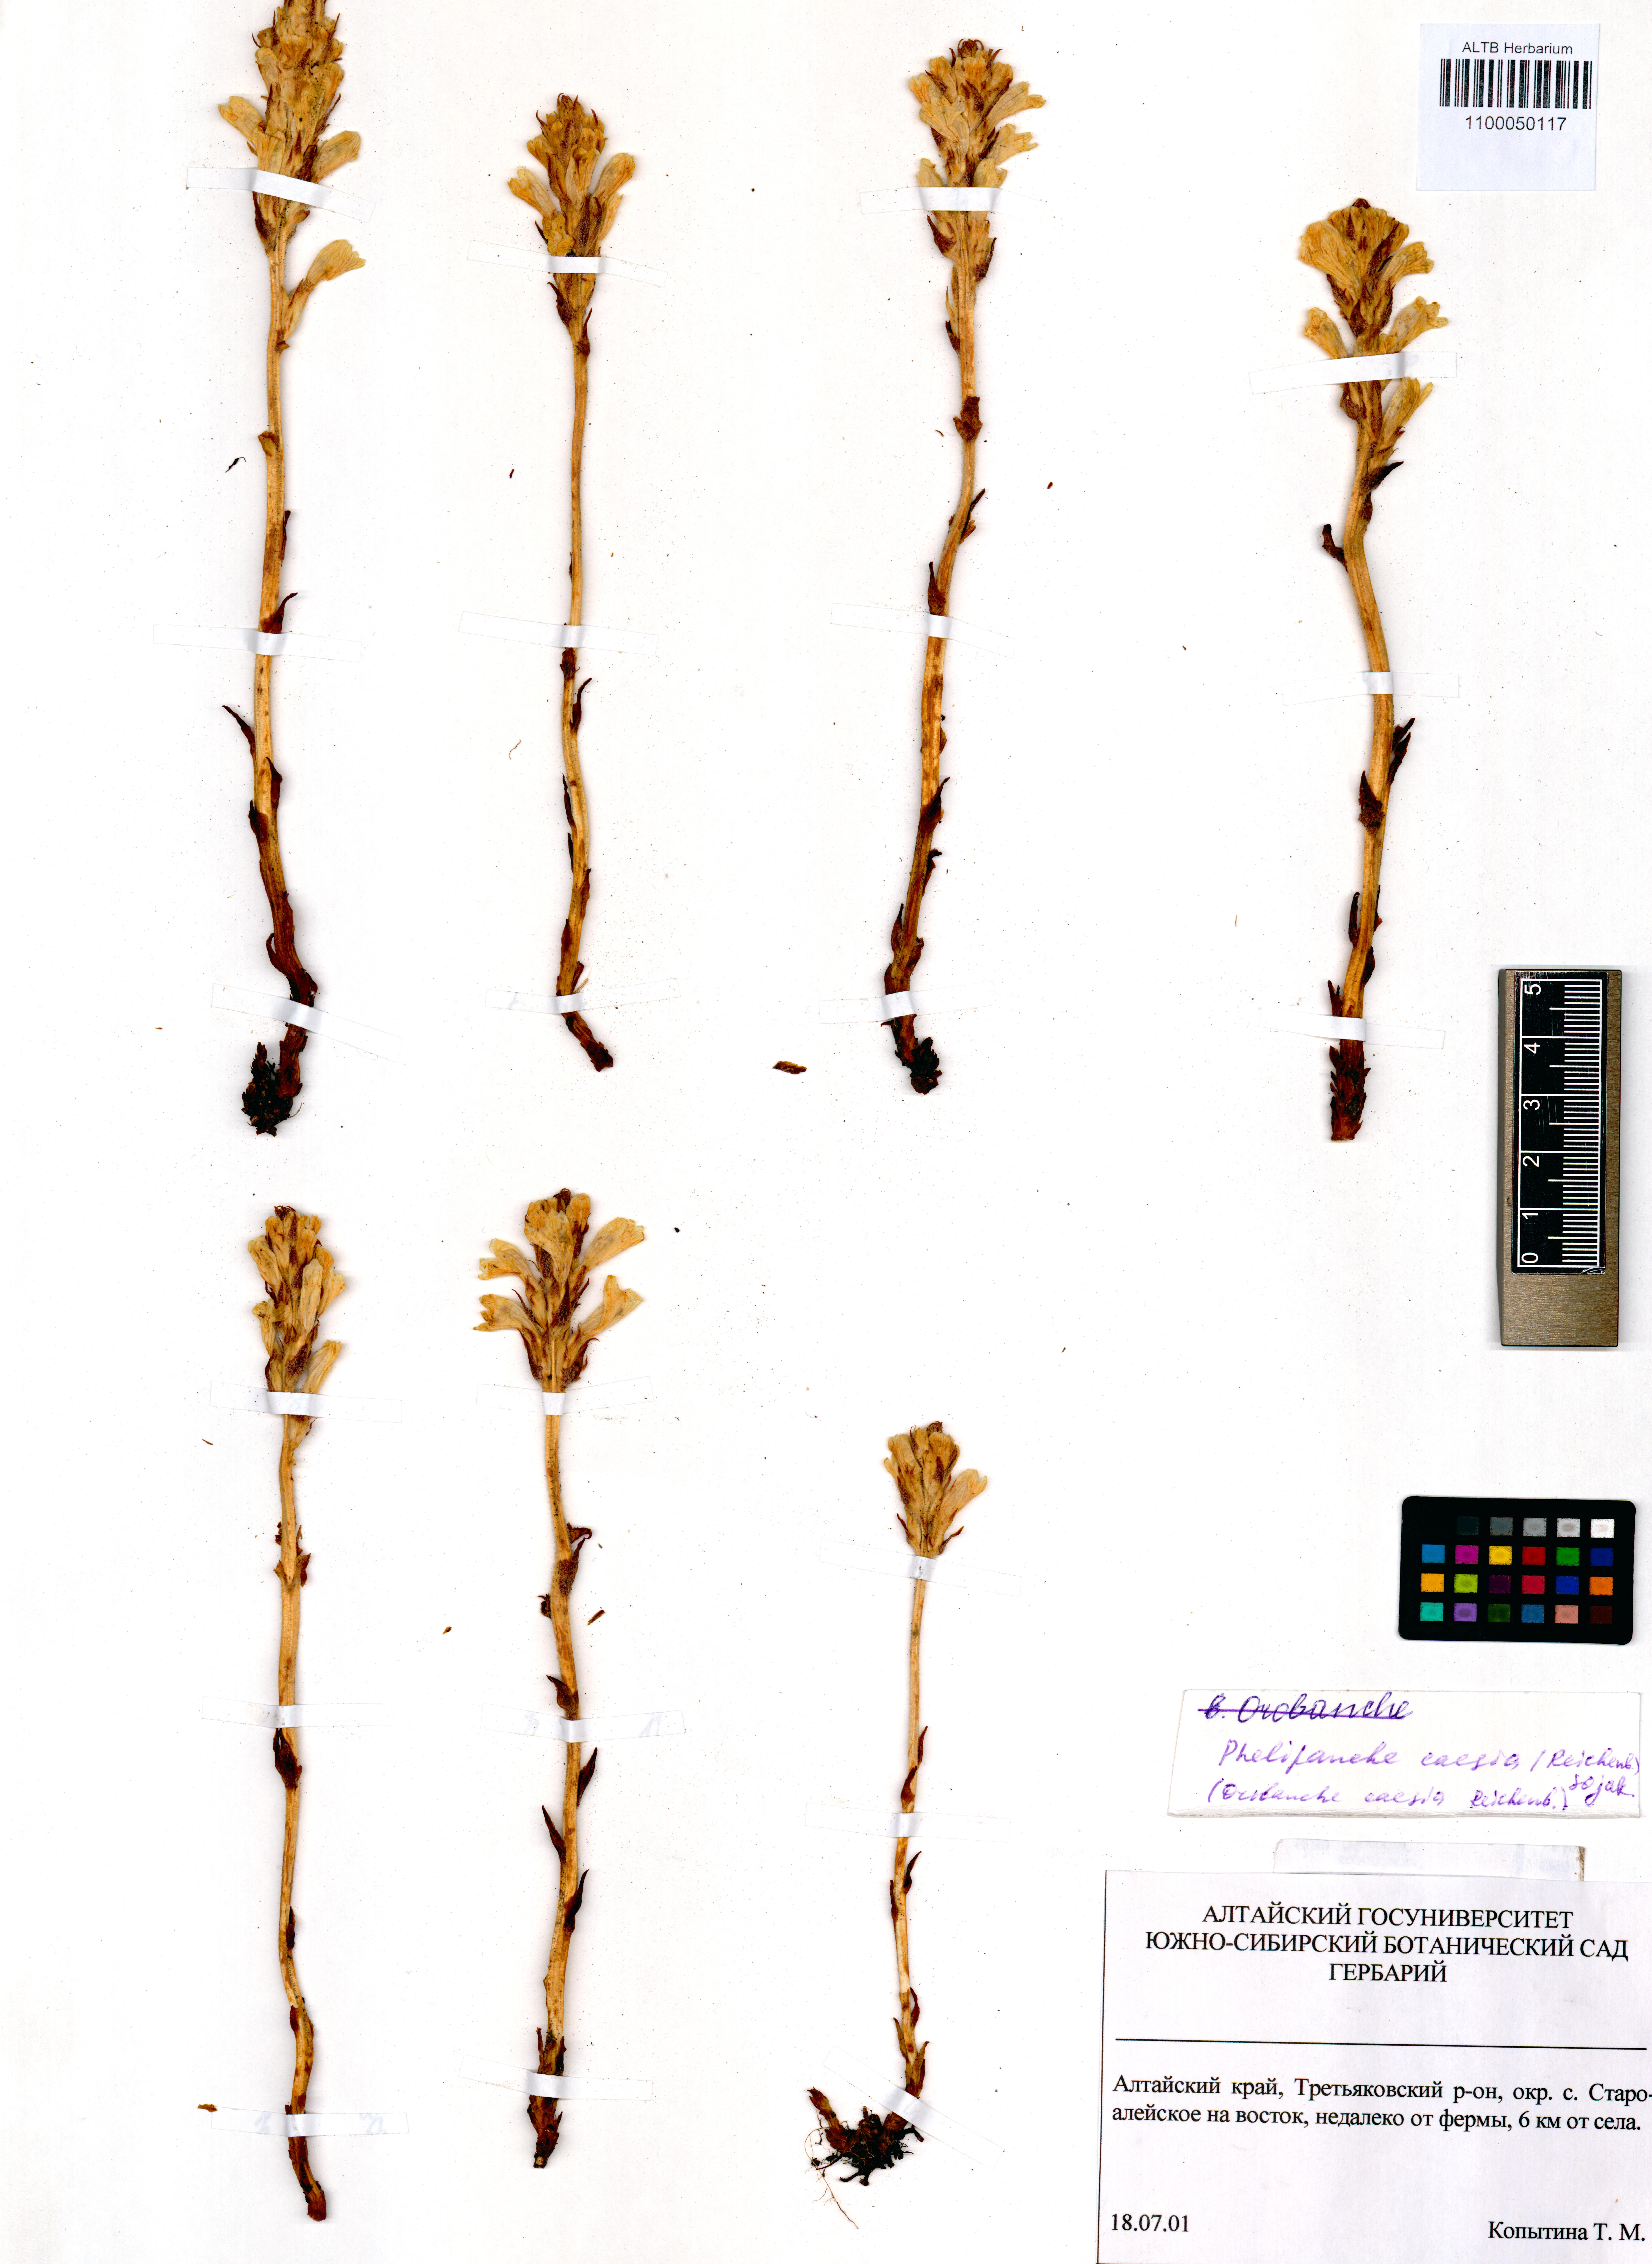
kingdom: Plantae
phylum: Tracheophyta
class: Magnoliopsida
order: Lamiales
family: Orobanchaceae
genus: Phelipanche
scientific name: Phelipanche caesia
